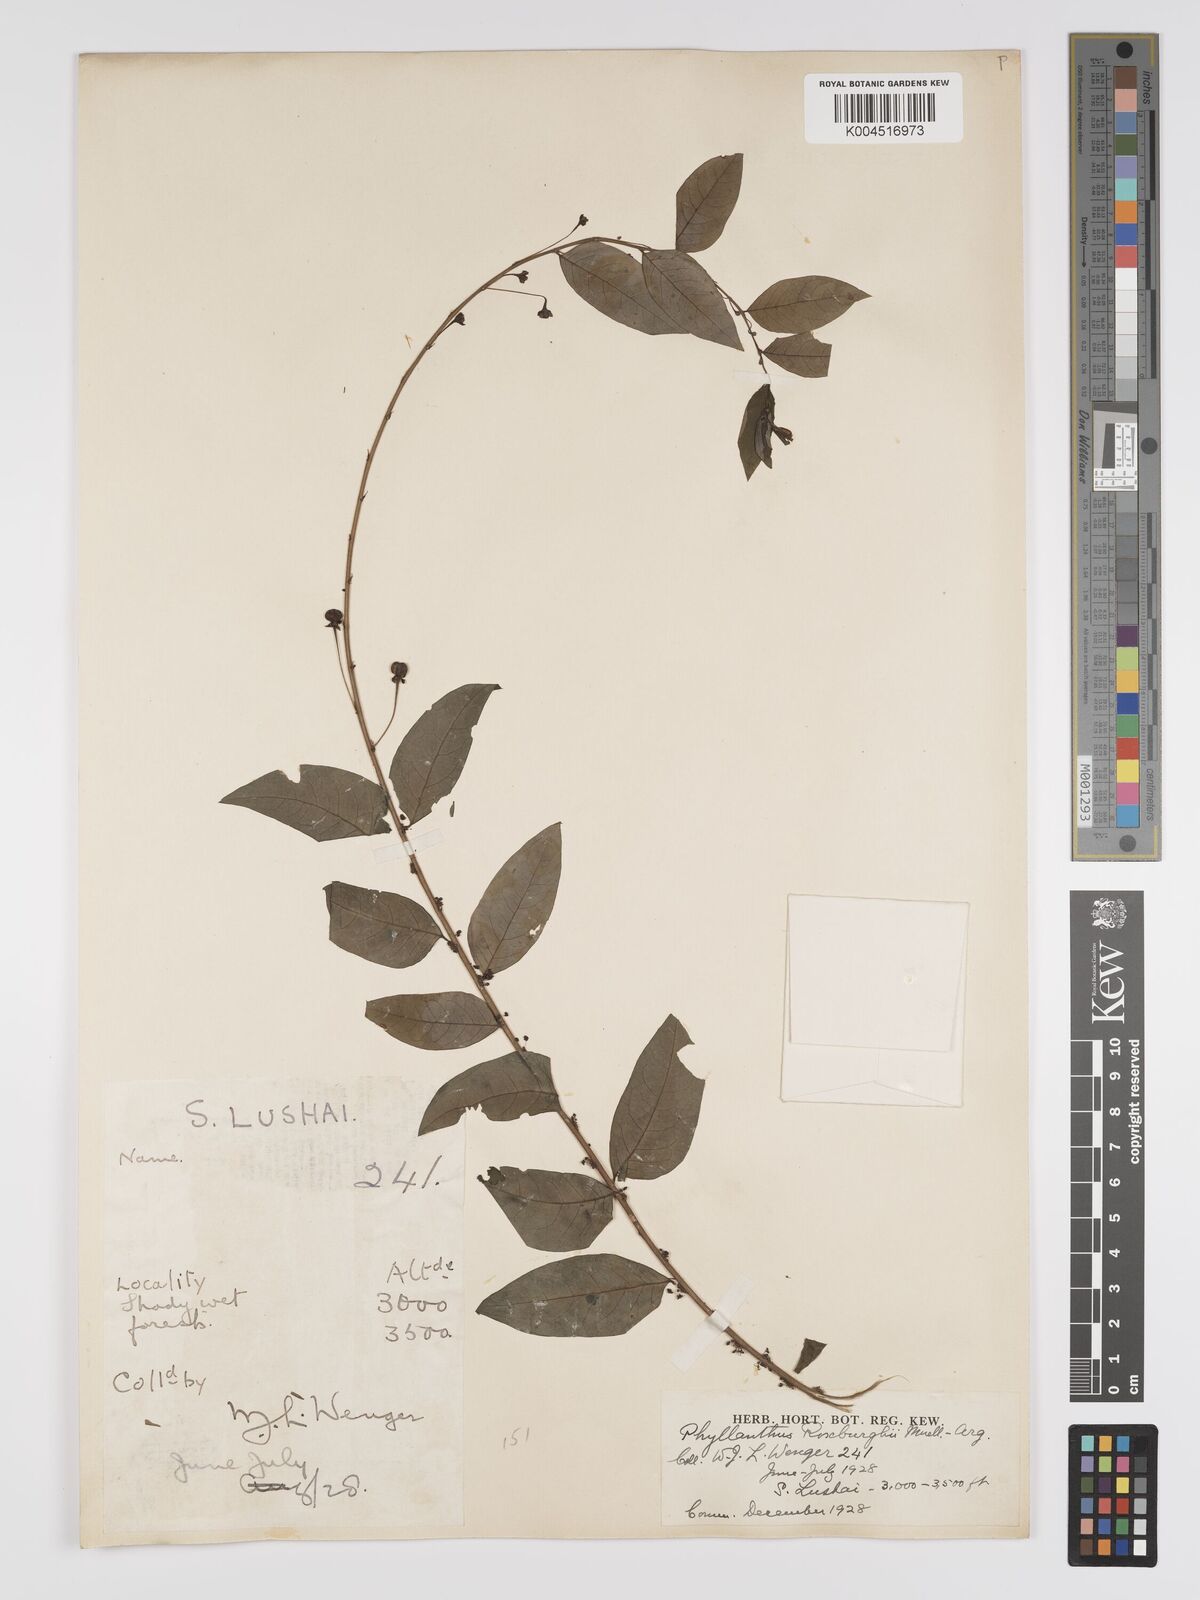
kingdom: Plantae
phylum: Tracheophyta
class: Magnoliopsida
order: Malpighiales
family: Phyllanthaceae
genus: Phyllanthus
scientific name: Phyllanthus tetrandrus
